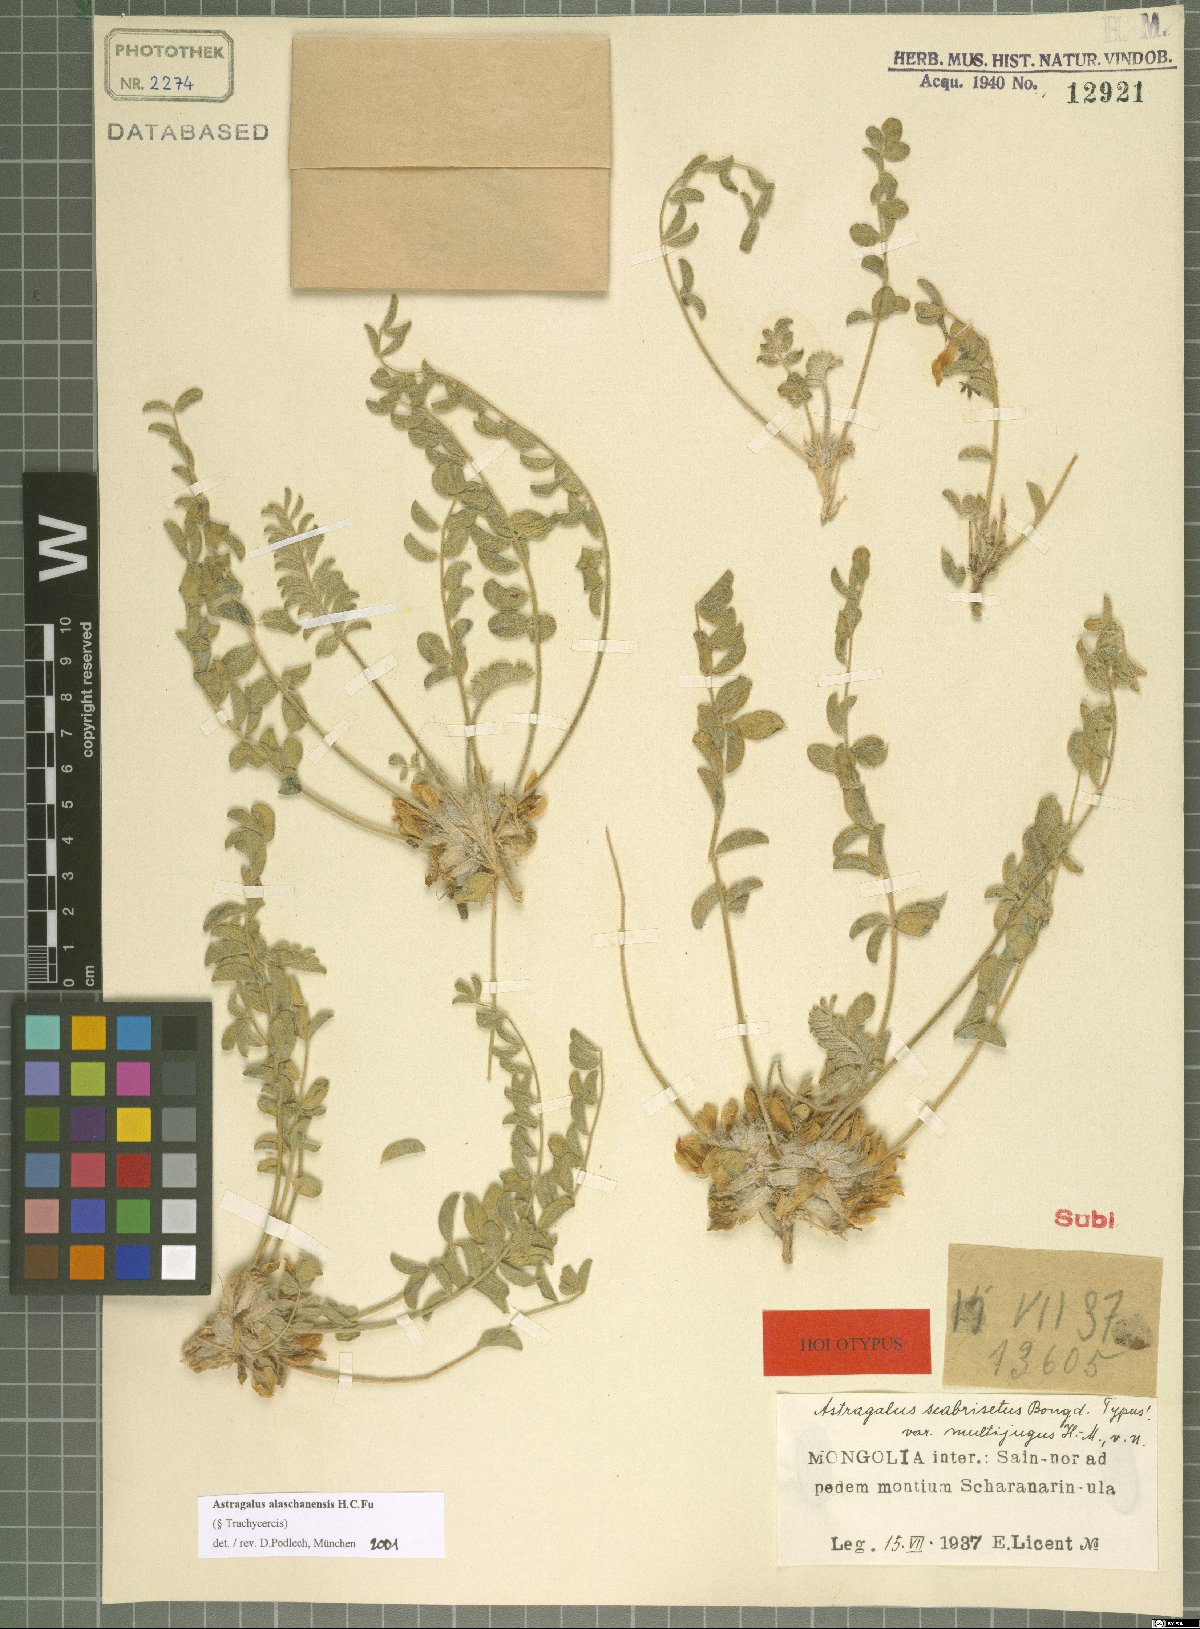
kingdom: Plantae
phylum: Tracheophyta
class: Magnoliopsida
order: Fabales
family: Fabaceae
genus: Astragalus
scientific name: Astragalus grubovii
